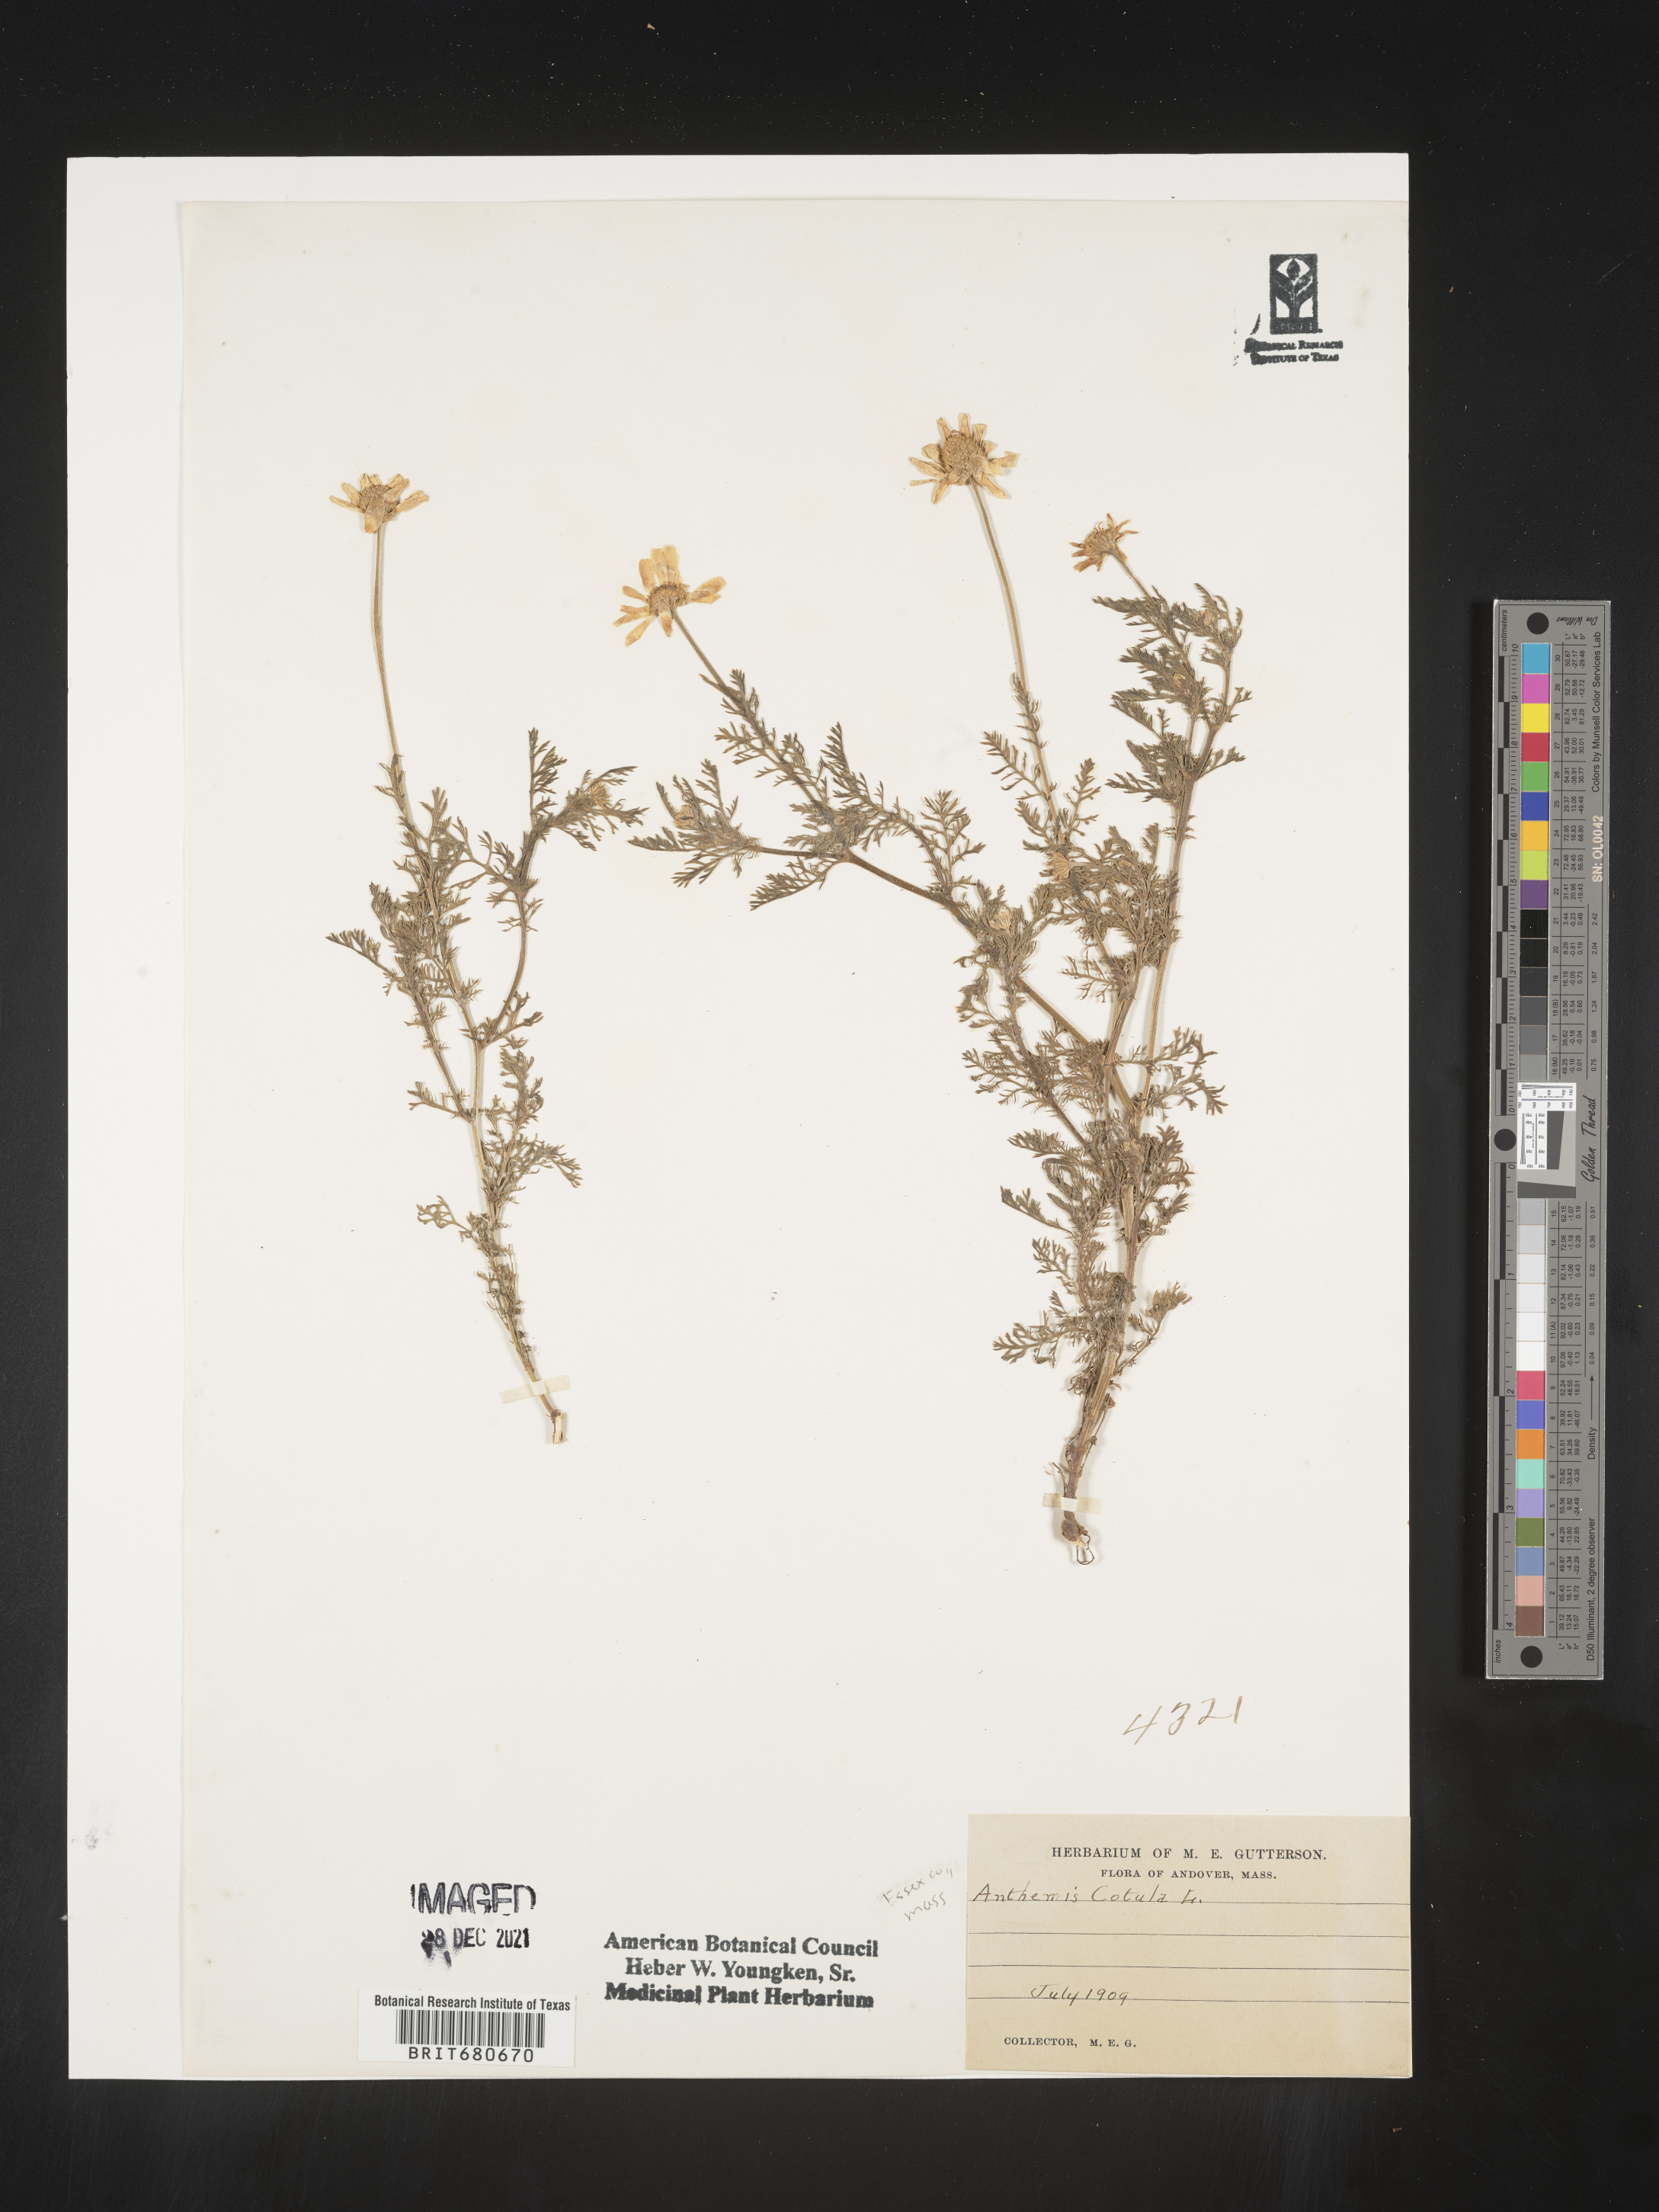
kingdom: Plantae
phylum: Tracheophyta
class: Magnoliopsida
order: Asterales
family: Asteraceae
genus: Anthemis
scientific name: Anthemis cotula
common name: Stinking chamomile
